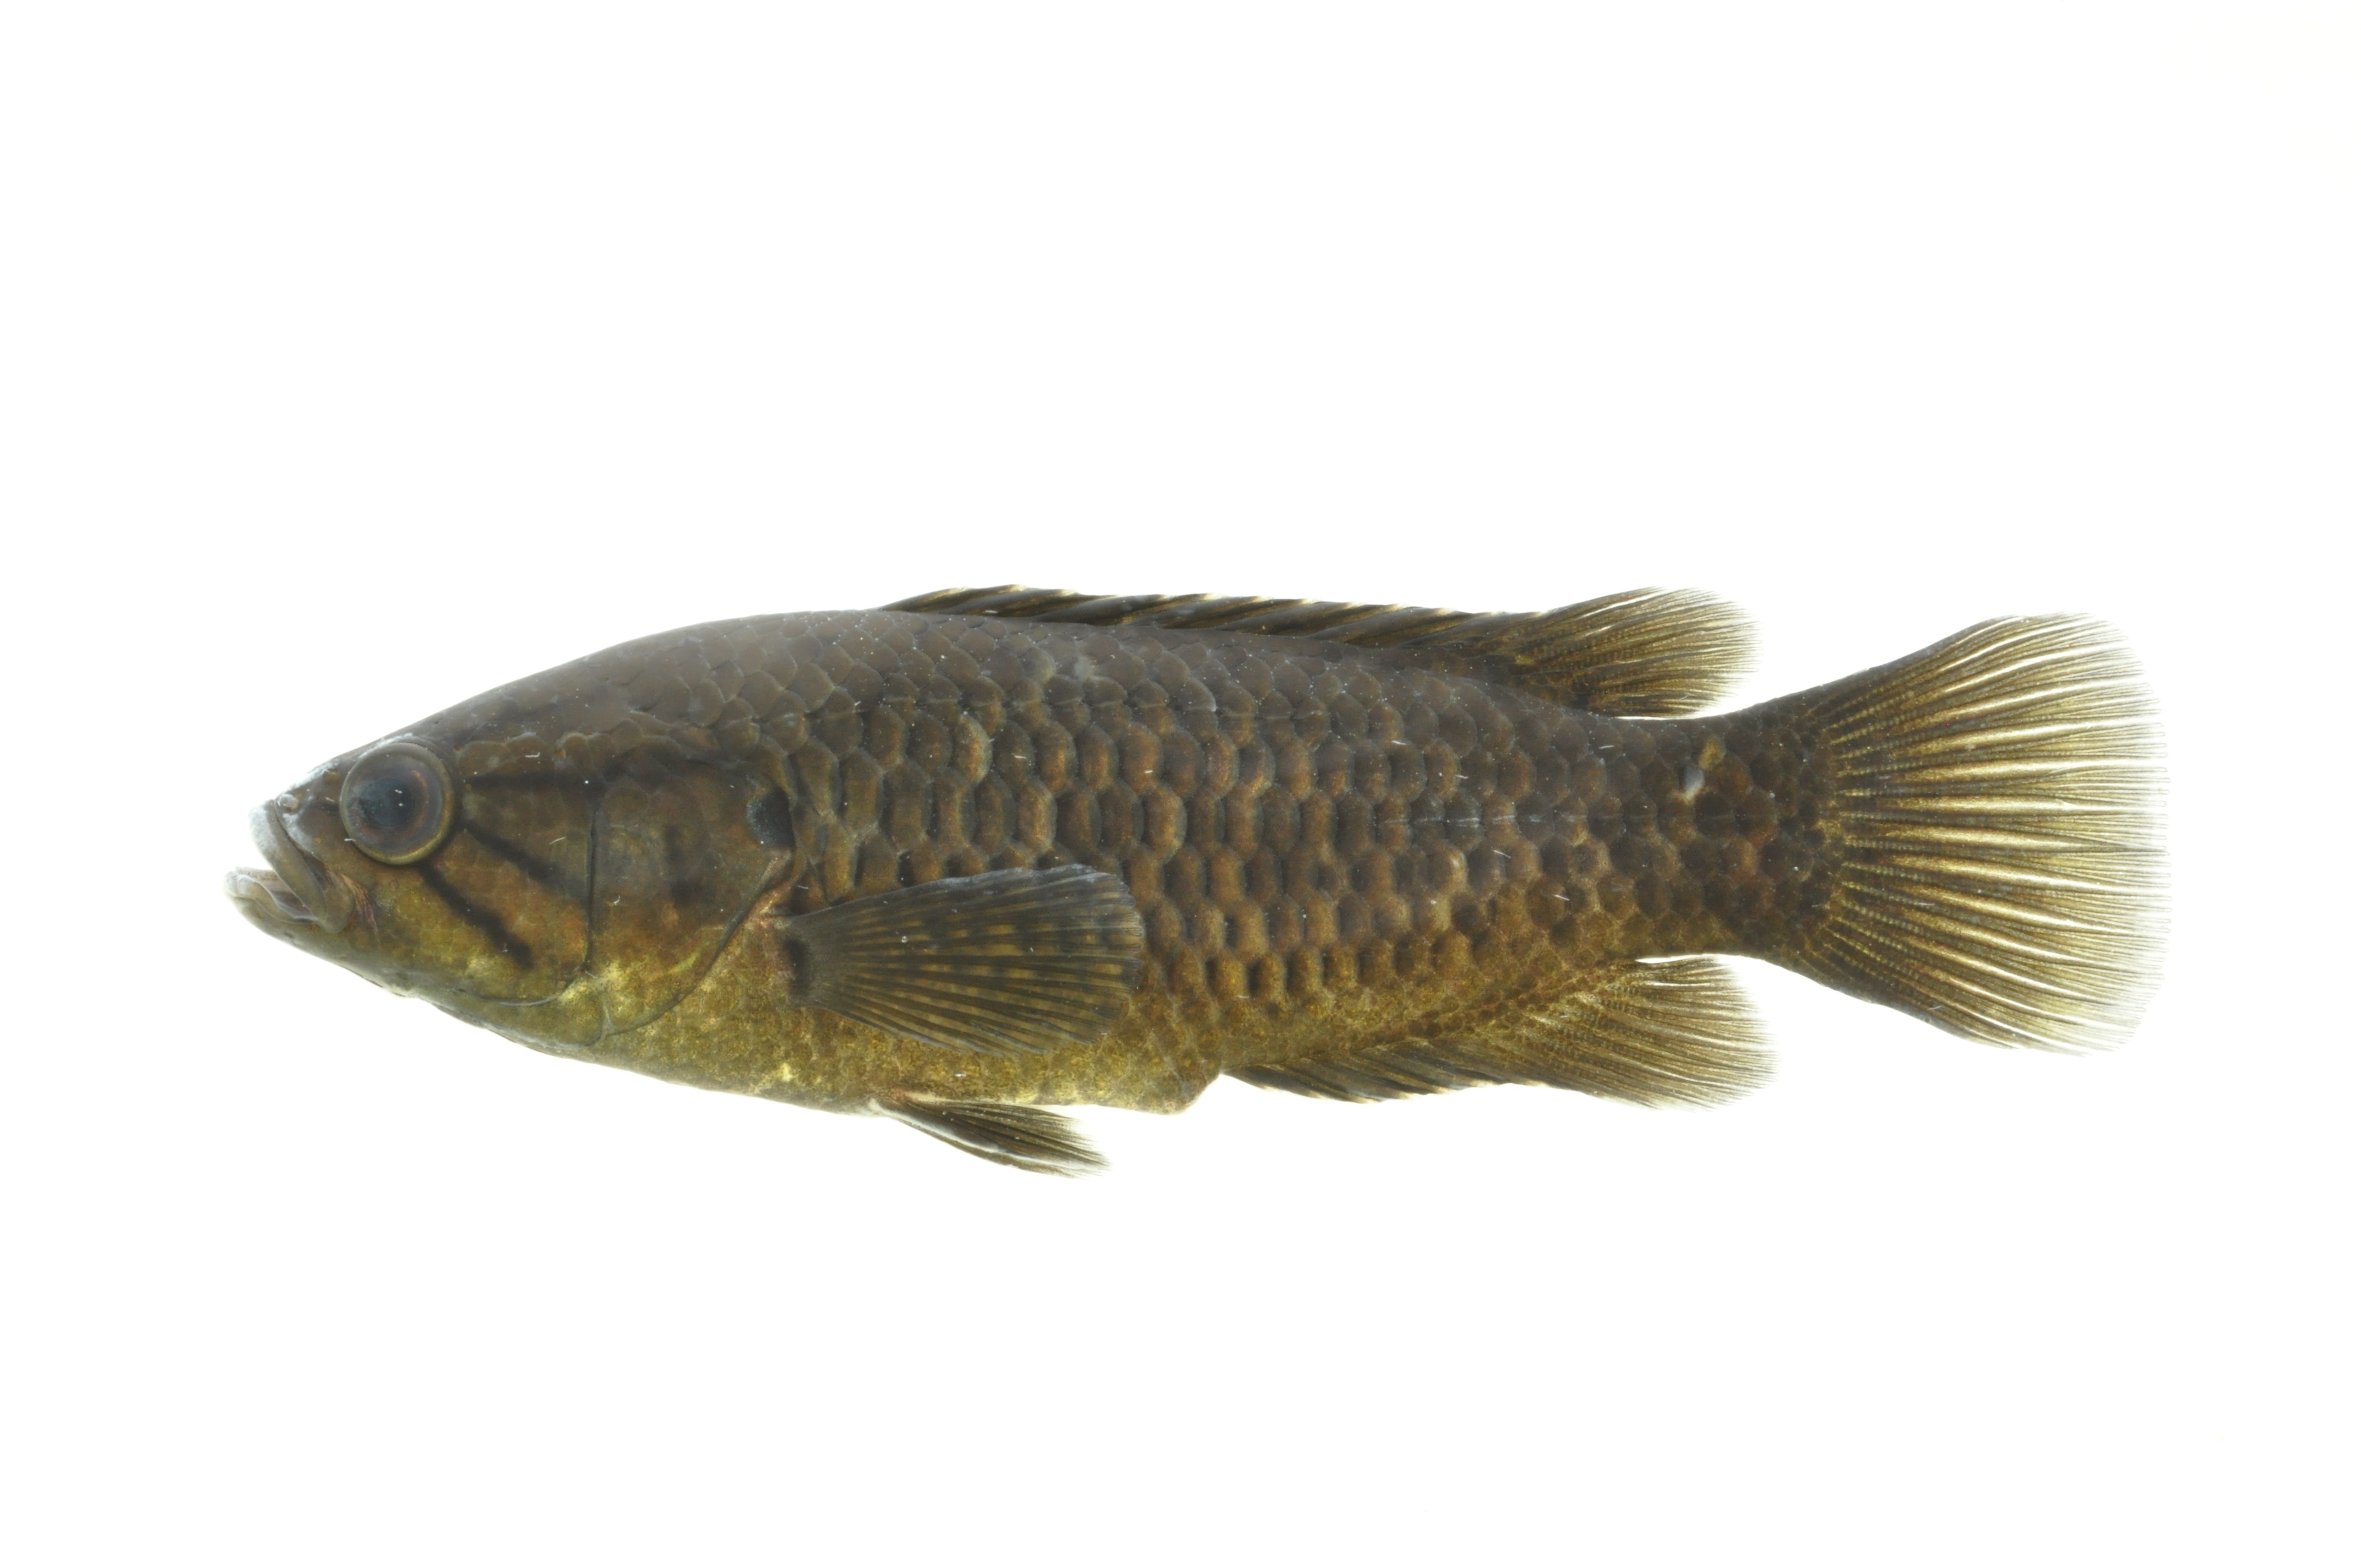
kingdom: Animalia
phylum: Chordata
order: Perciformes
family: Anabantidae
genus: Sandelia
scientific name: Sandelia capensis
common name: Cape kurper
